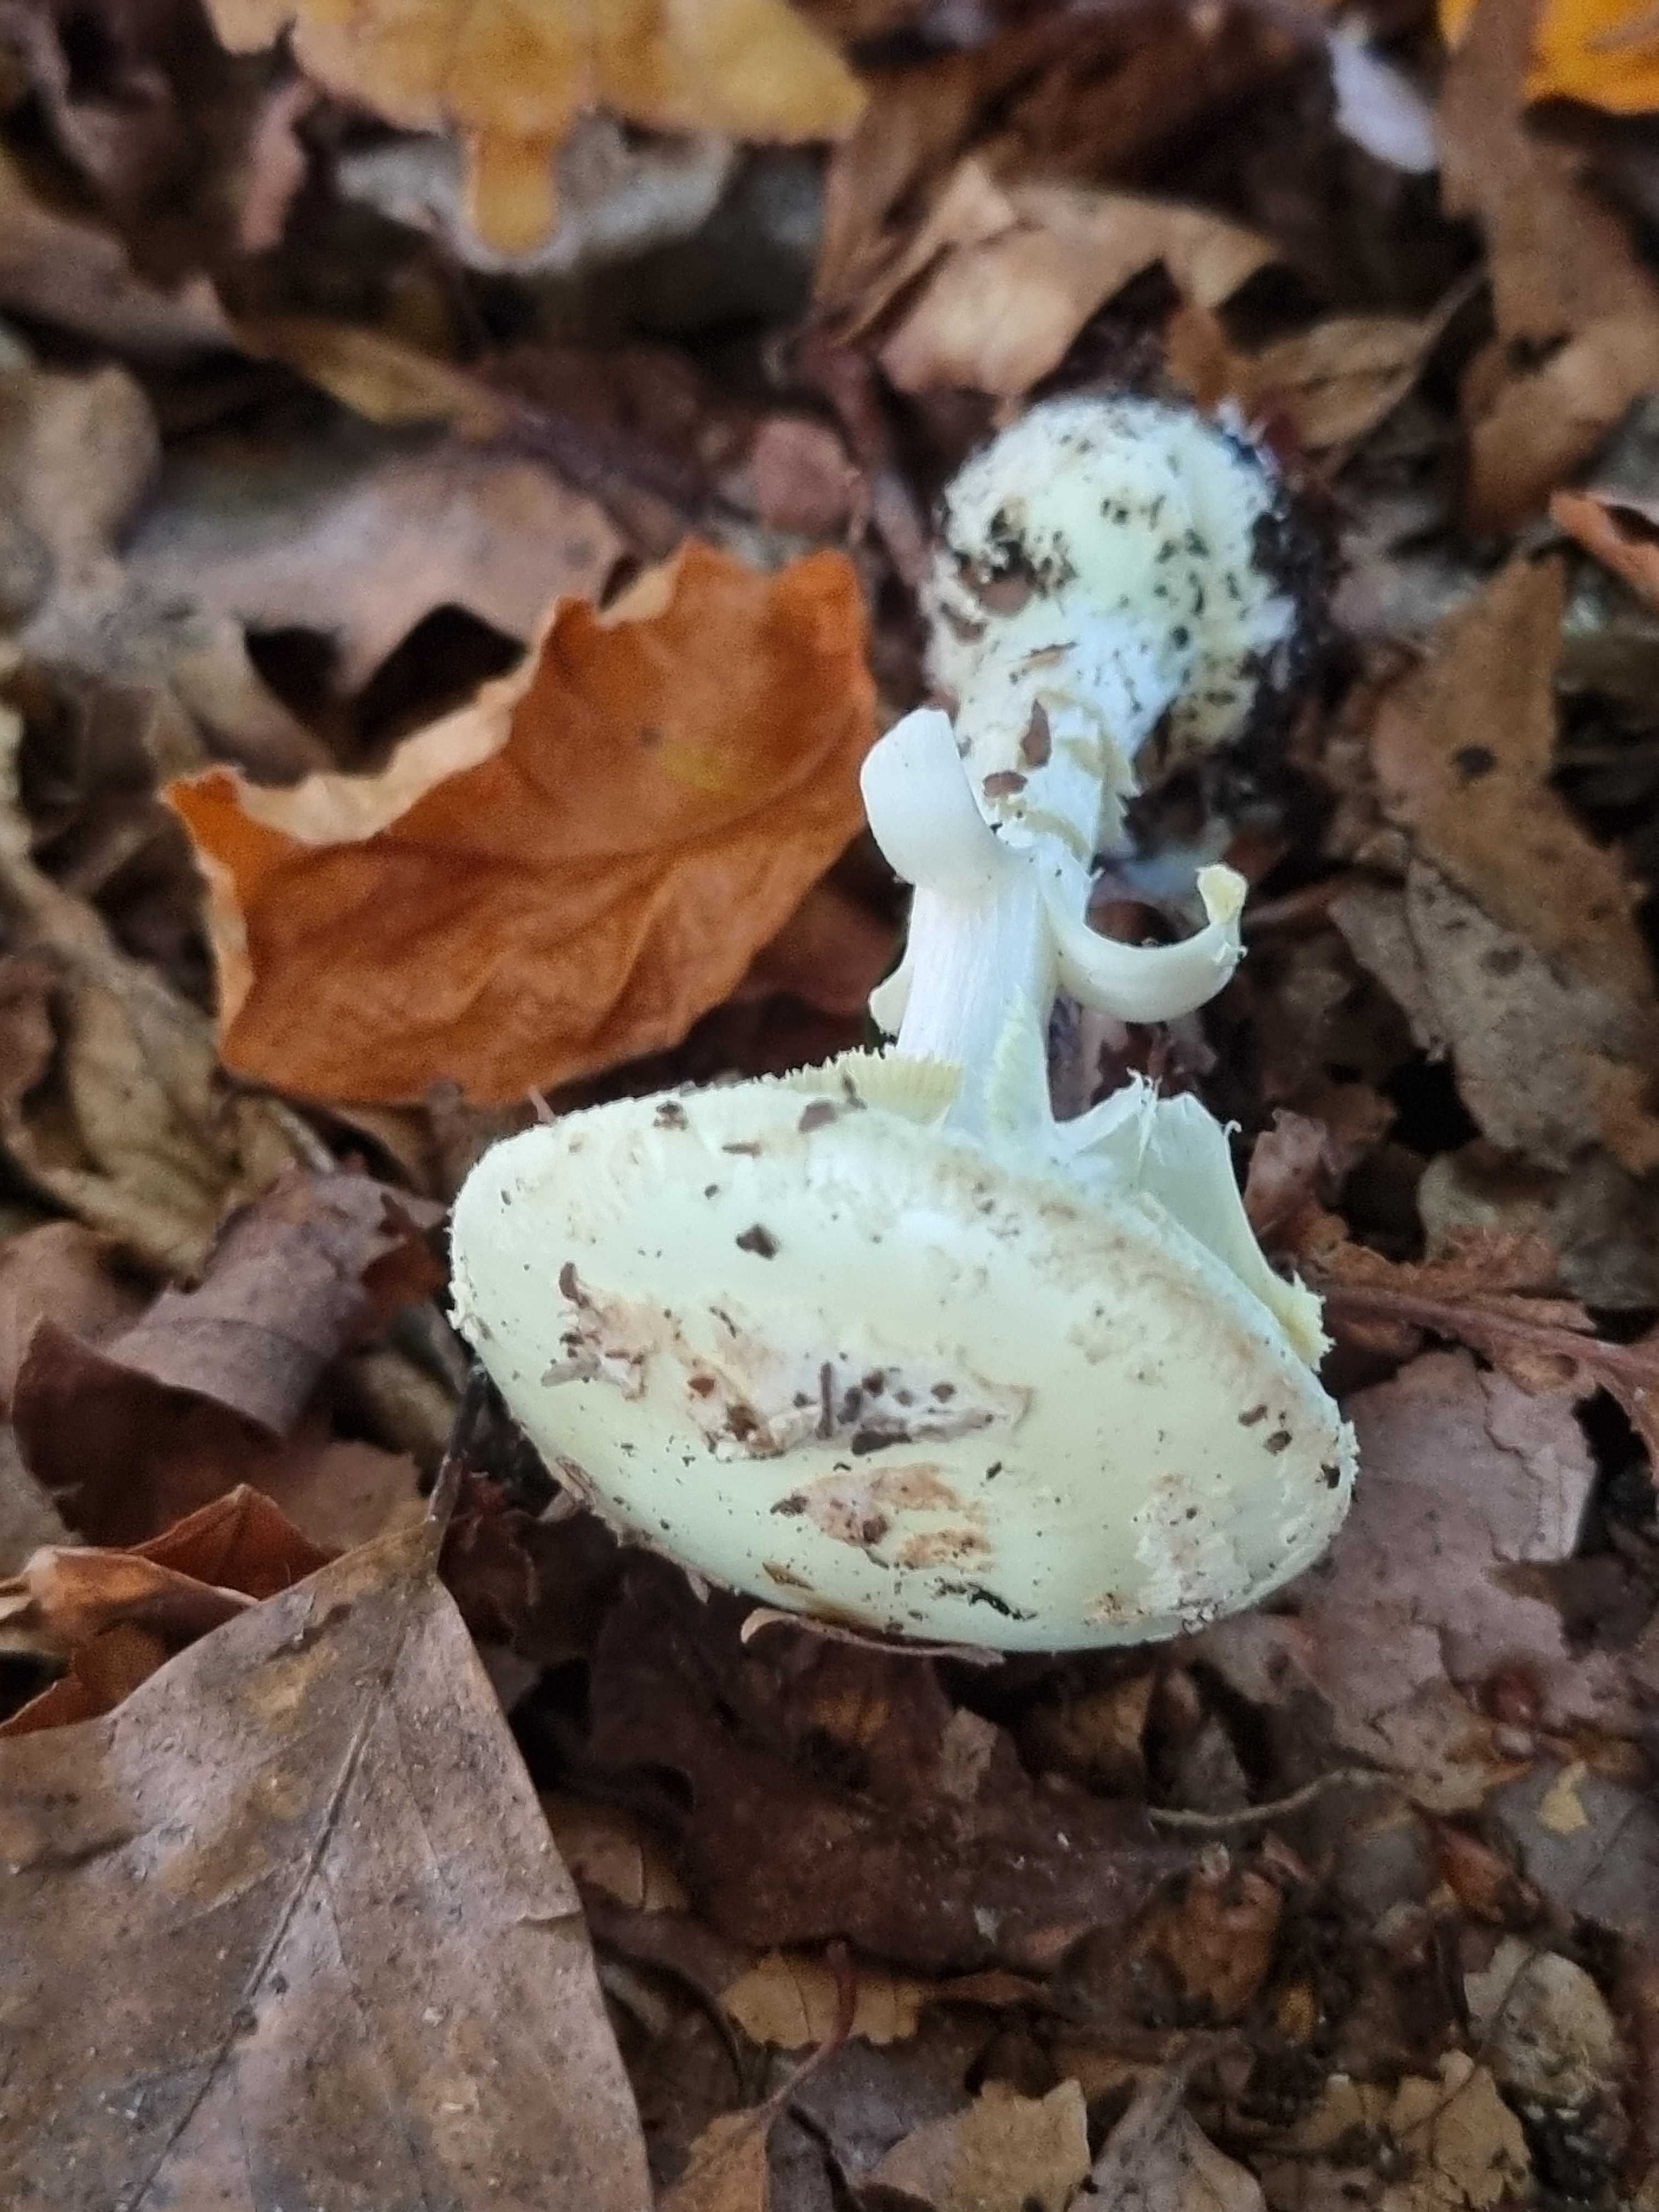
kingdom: Fungi
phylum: Basidiomycota
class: Agaricomycetes
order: Agaricales
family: Amanitaceae
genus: Amanita
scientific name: Amanita citrina
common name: kugleknoldet fluesvamp
